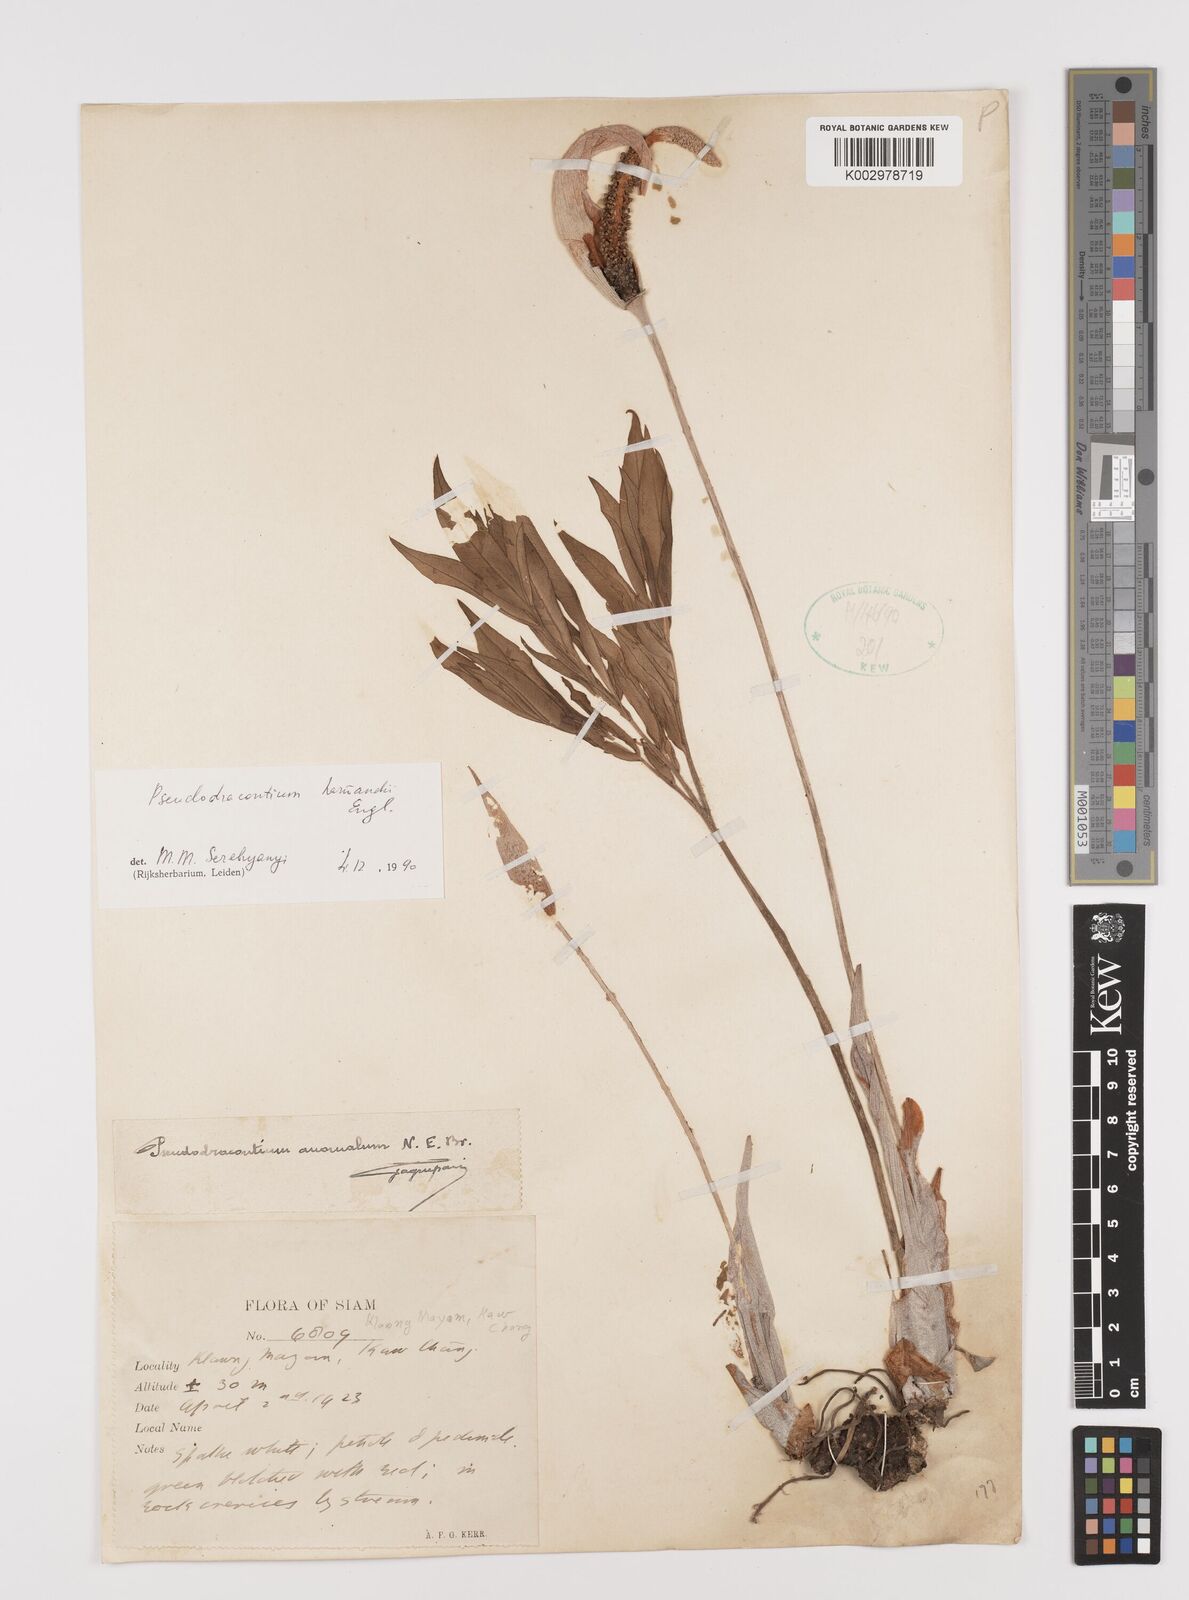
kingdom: Plantae
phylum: Tracheophyta
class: Liliopsida
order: Alismatales
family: Araceae
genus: Amorphophallus
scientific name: Amorphophallus harmandii
